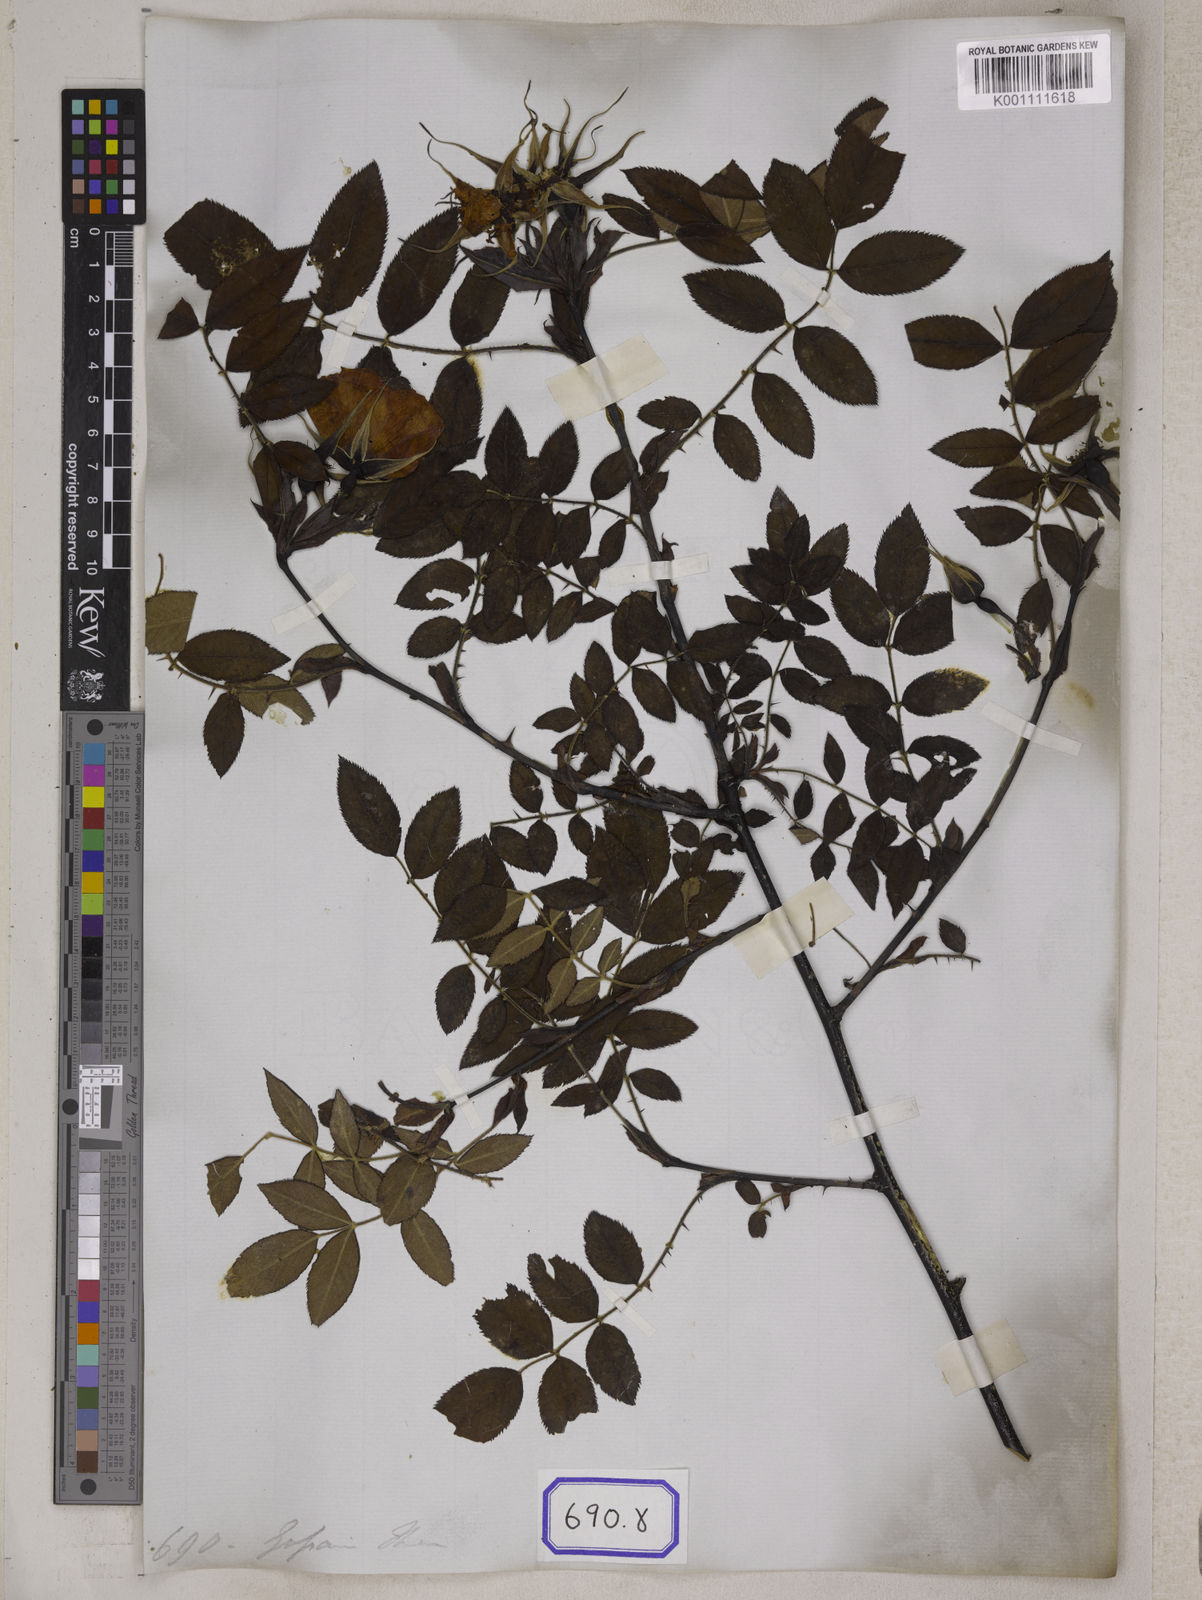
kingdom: Plantae
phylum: Tracheophyta
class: Magnoliopsida
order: Rosales
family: Rosaceae
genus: Rosa
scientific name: Rosa
